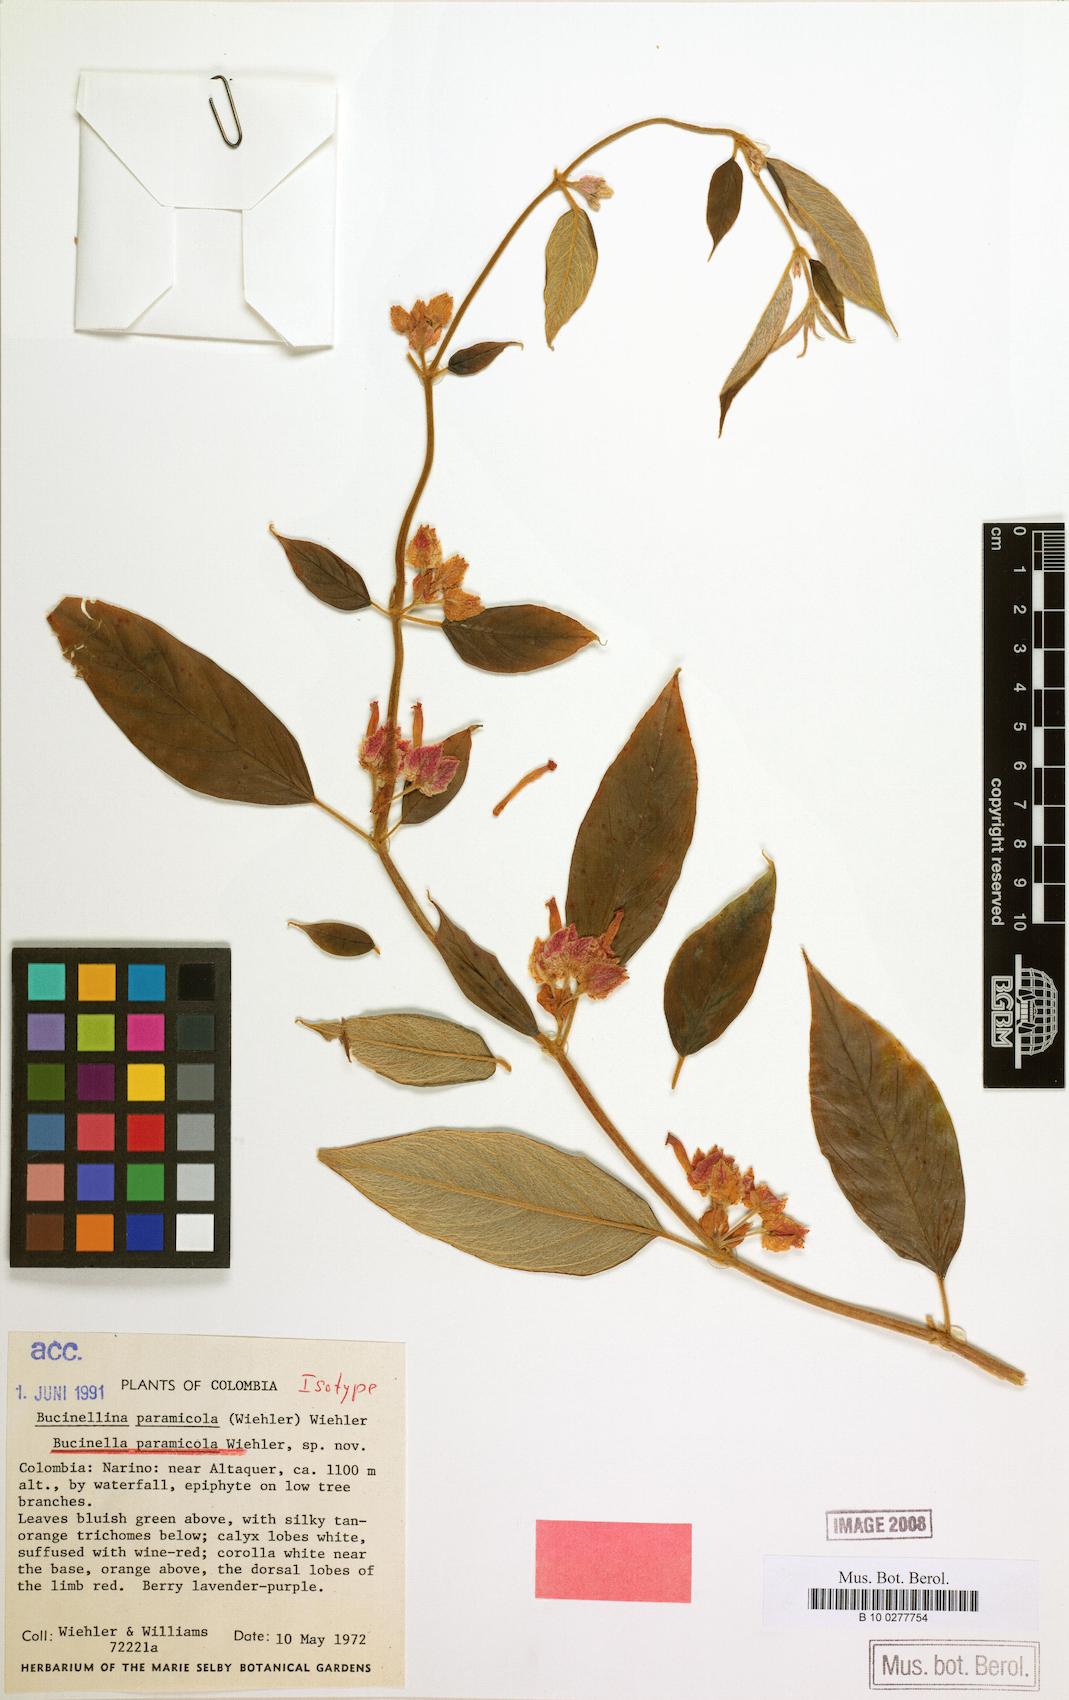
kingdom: Plantae
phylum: Tracheophyta
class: Magnoliopsida
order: Lamiales
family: Gesneriaceae
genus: Columnea
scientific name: Columnea paramicola
